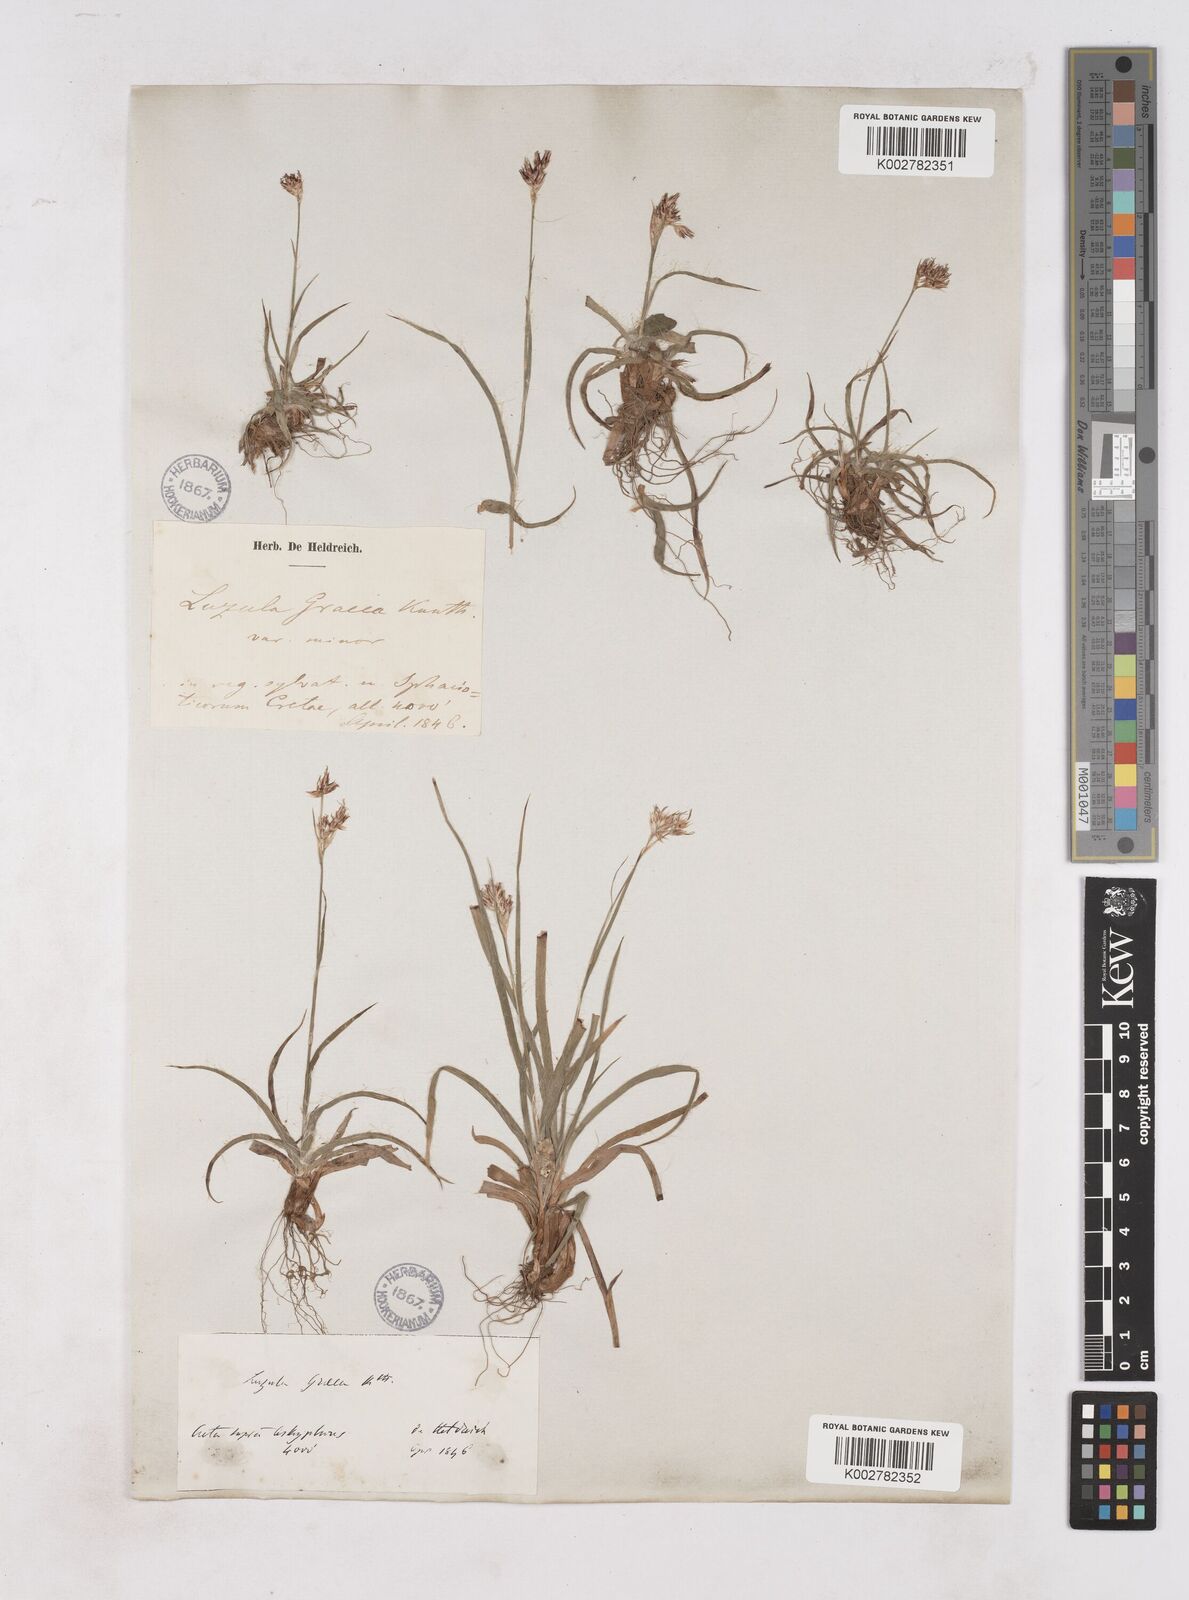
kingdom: Plantae
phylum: Tracheophyta
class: Liliopsida
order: Poales
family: Juncaceae
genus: Luzula
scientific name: Luzula nodulosa
